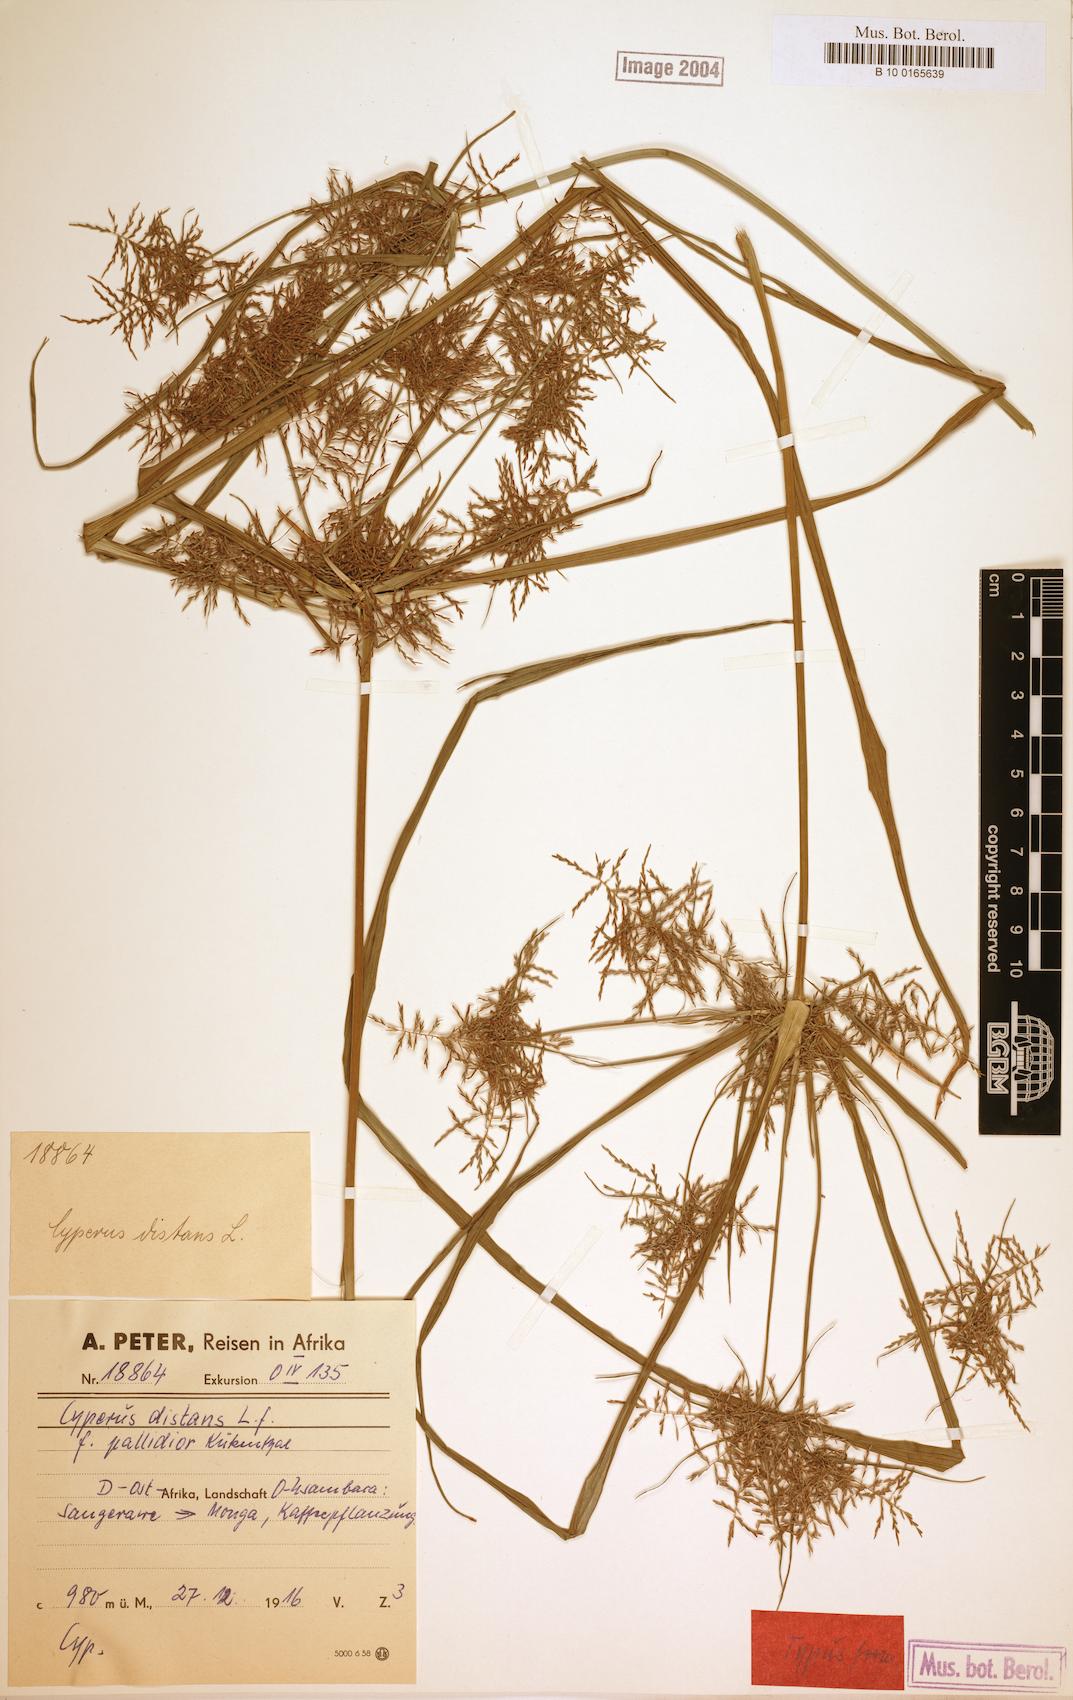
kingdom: Plantae
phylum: Tracheophyta
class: Liliopsida
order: Poales
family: Cyperaceae
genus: Cyperus
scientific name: Cyperus distans
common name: Slender cyperus
